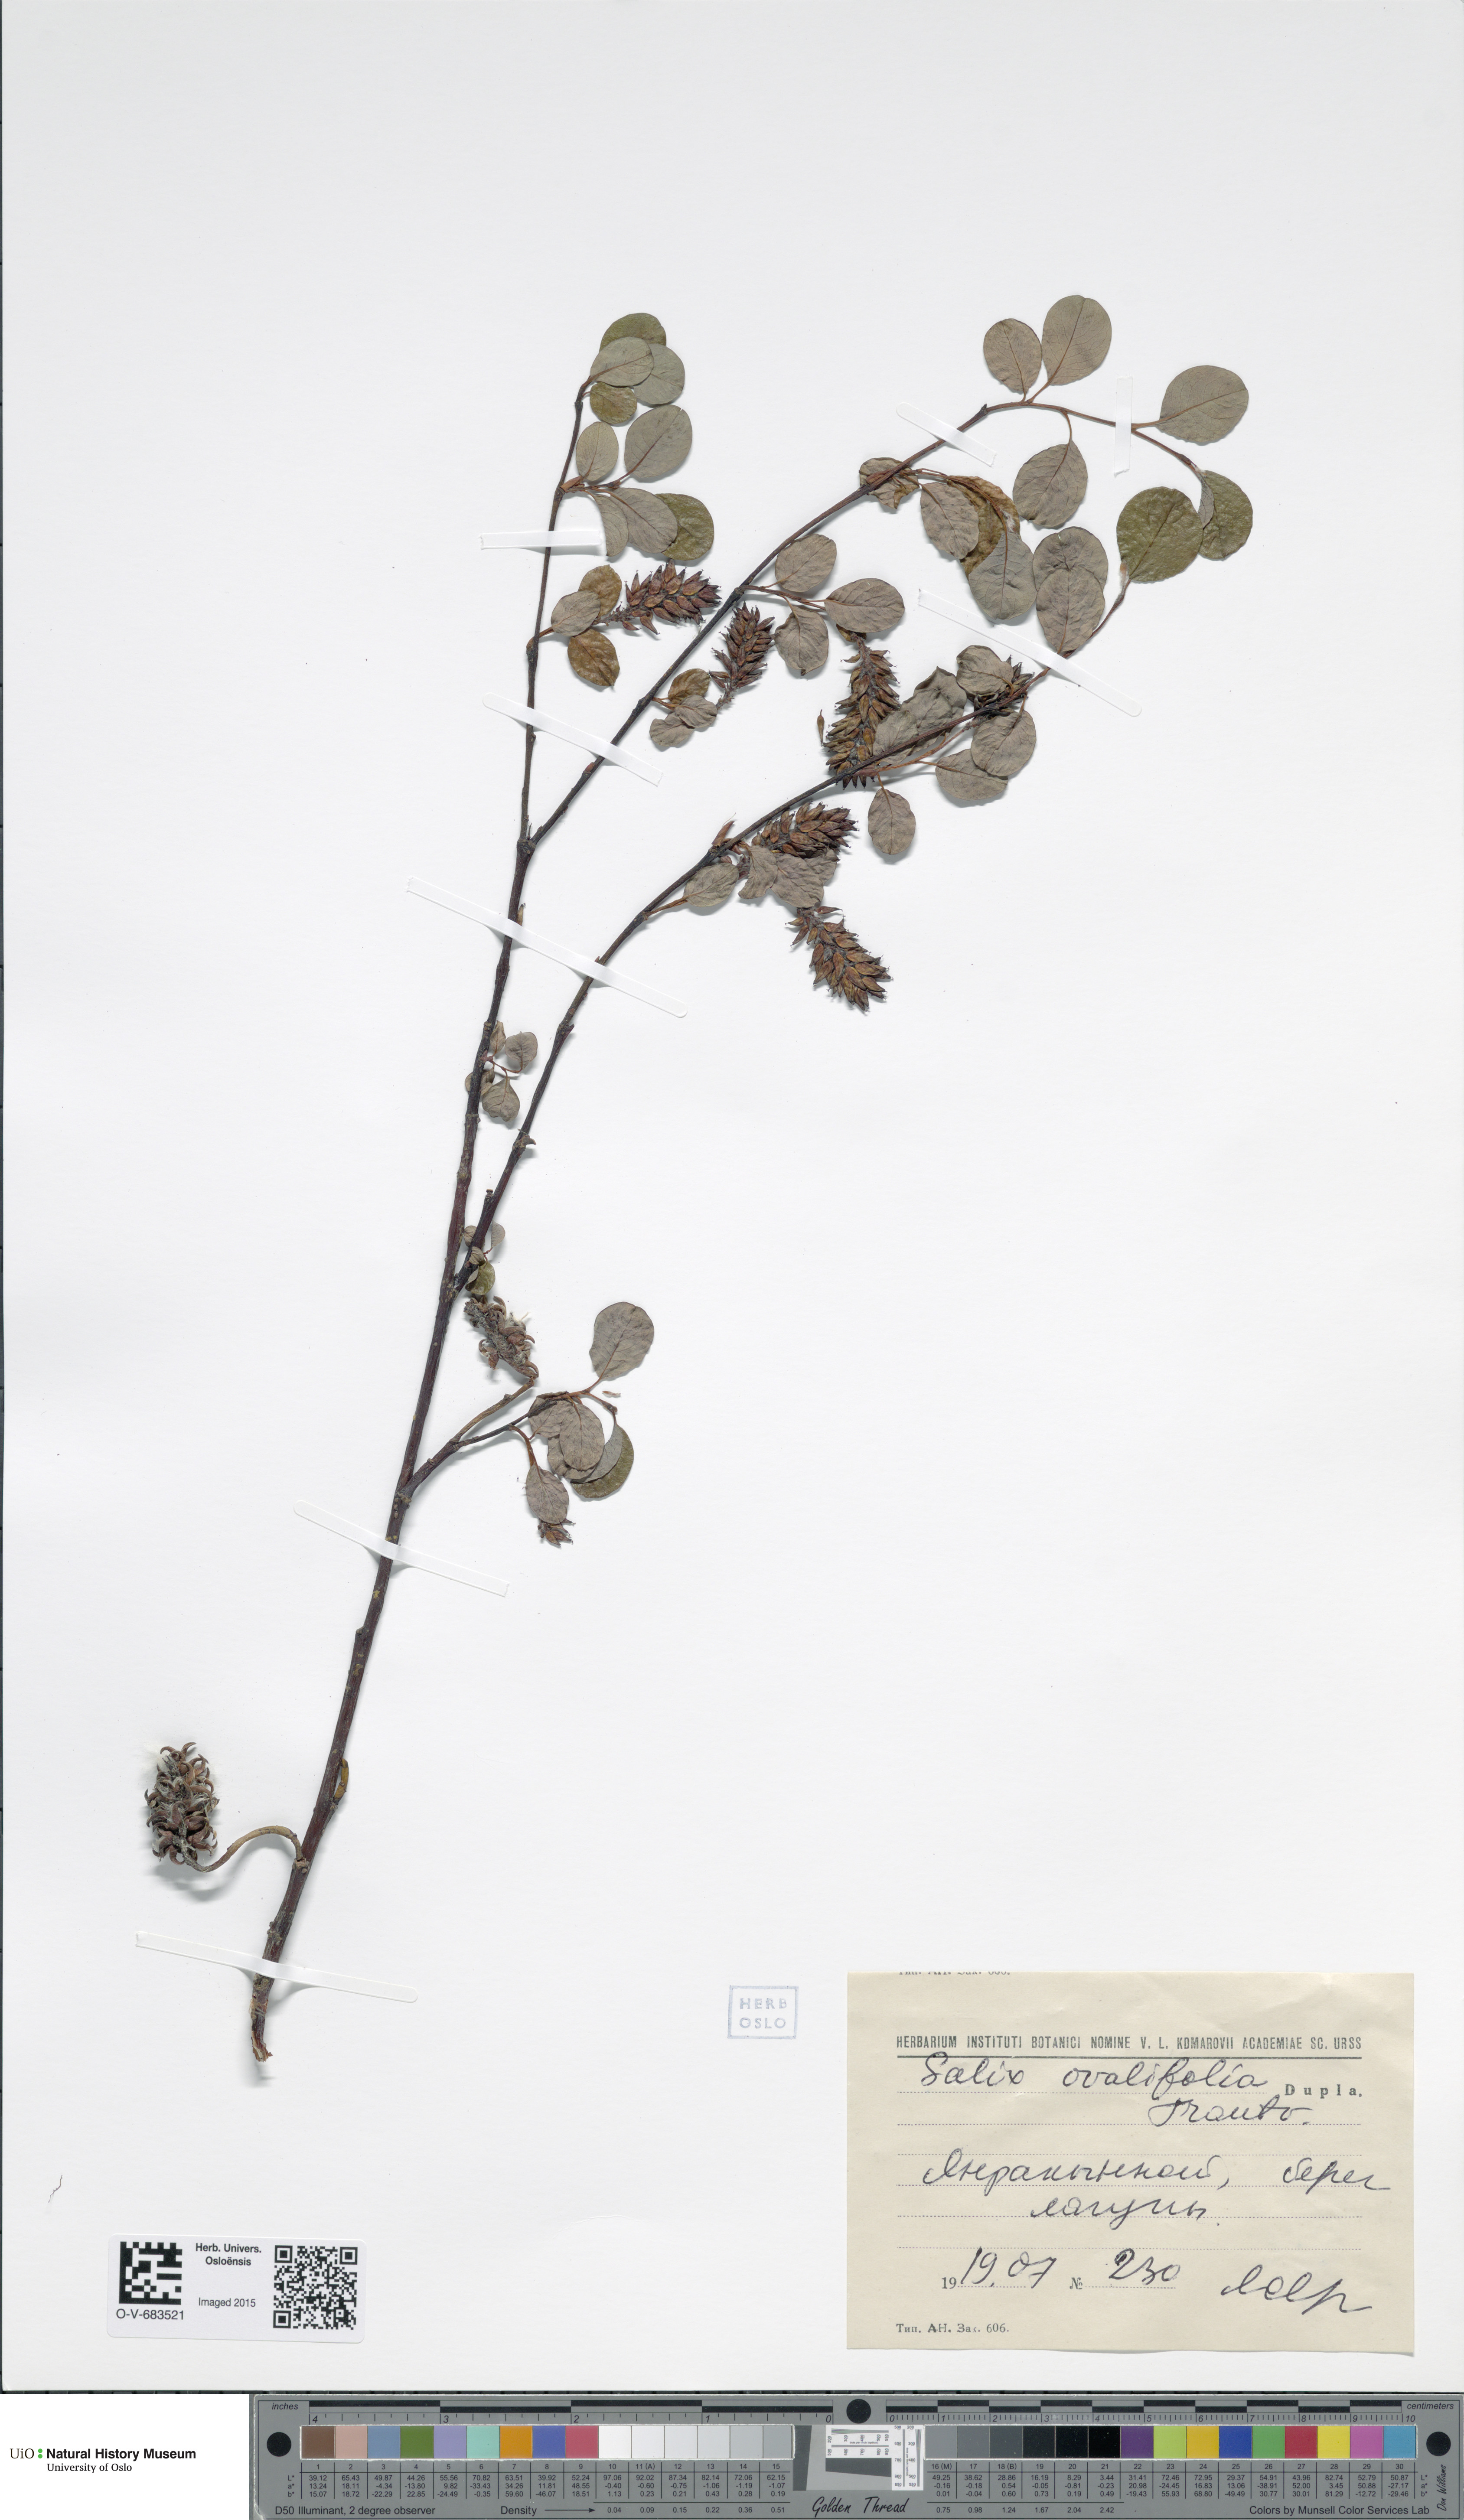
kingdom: Plantae
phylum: Tracheophyta
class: Magnoliopsida
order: Malpighiales
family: Salicaceae
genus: Salix
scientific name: Salix ovalifolia
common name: Arctic seashore willow
